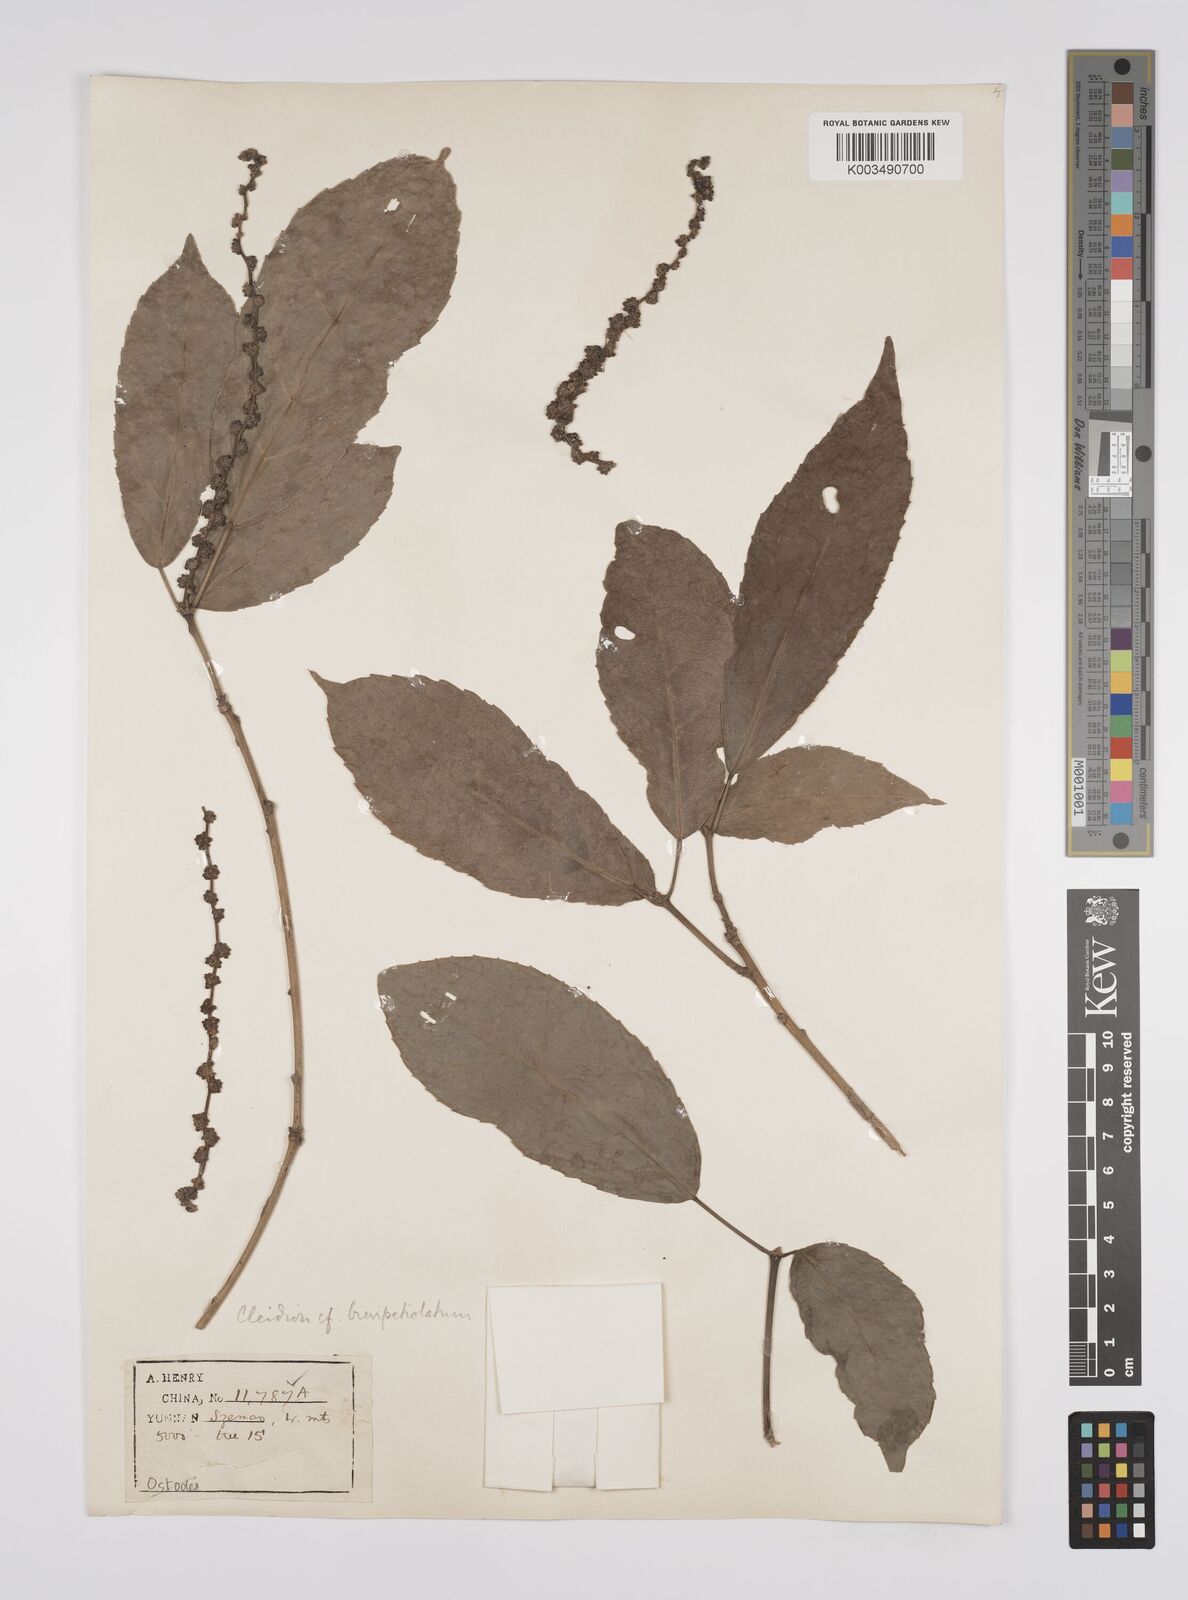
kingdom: Plantae
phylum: Tracheophyta
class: Magnoliopsida
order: Malpighiales
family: Euphorbiaceae
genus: Cleidion
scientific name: Cleidion brevipetiolatum
